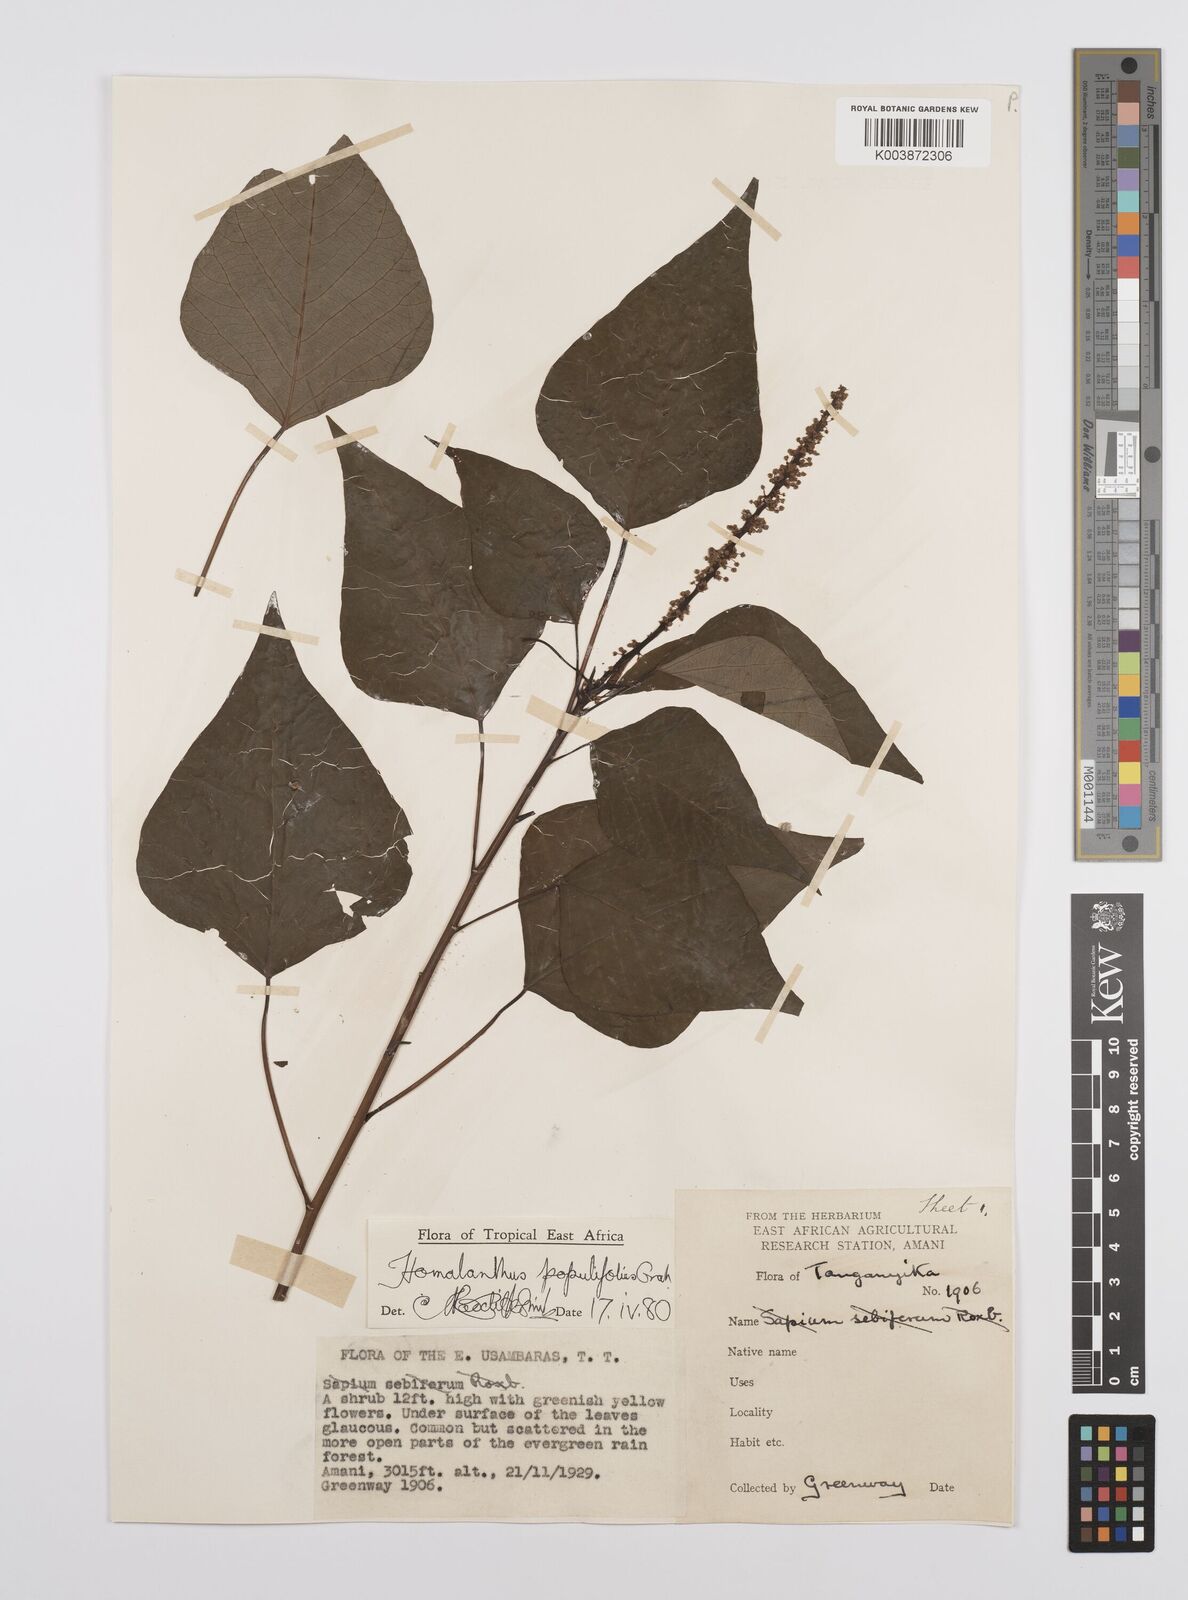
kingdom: Plantae
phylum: Tracheophyta
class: Magnoliopsida
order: Malpighiales
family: Euphorbiaceae
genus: Homalanthus
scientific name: Homalanthus populifolius
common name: Queensland poplar
